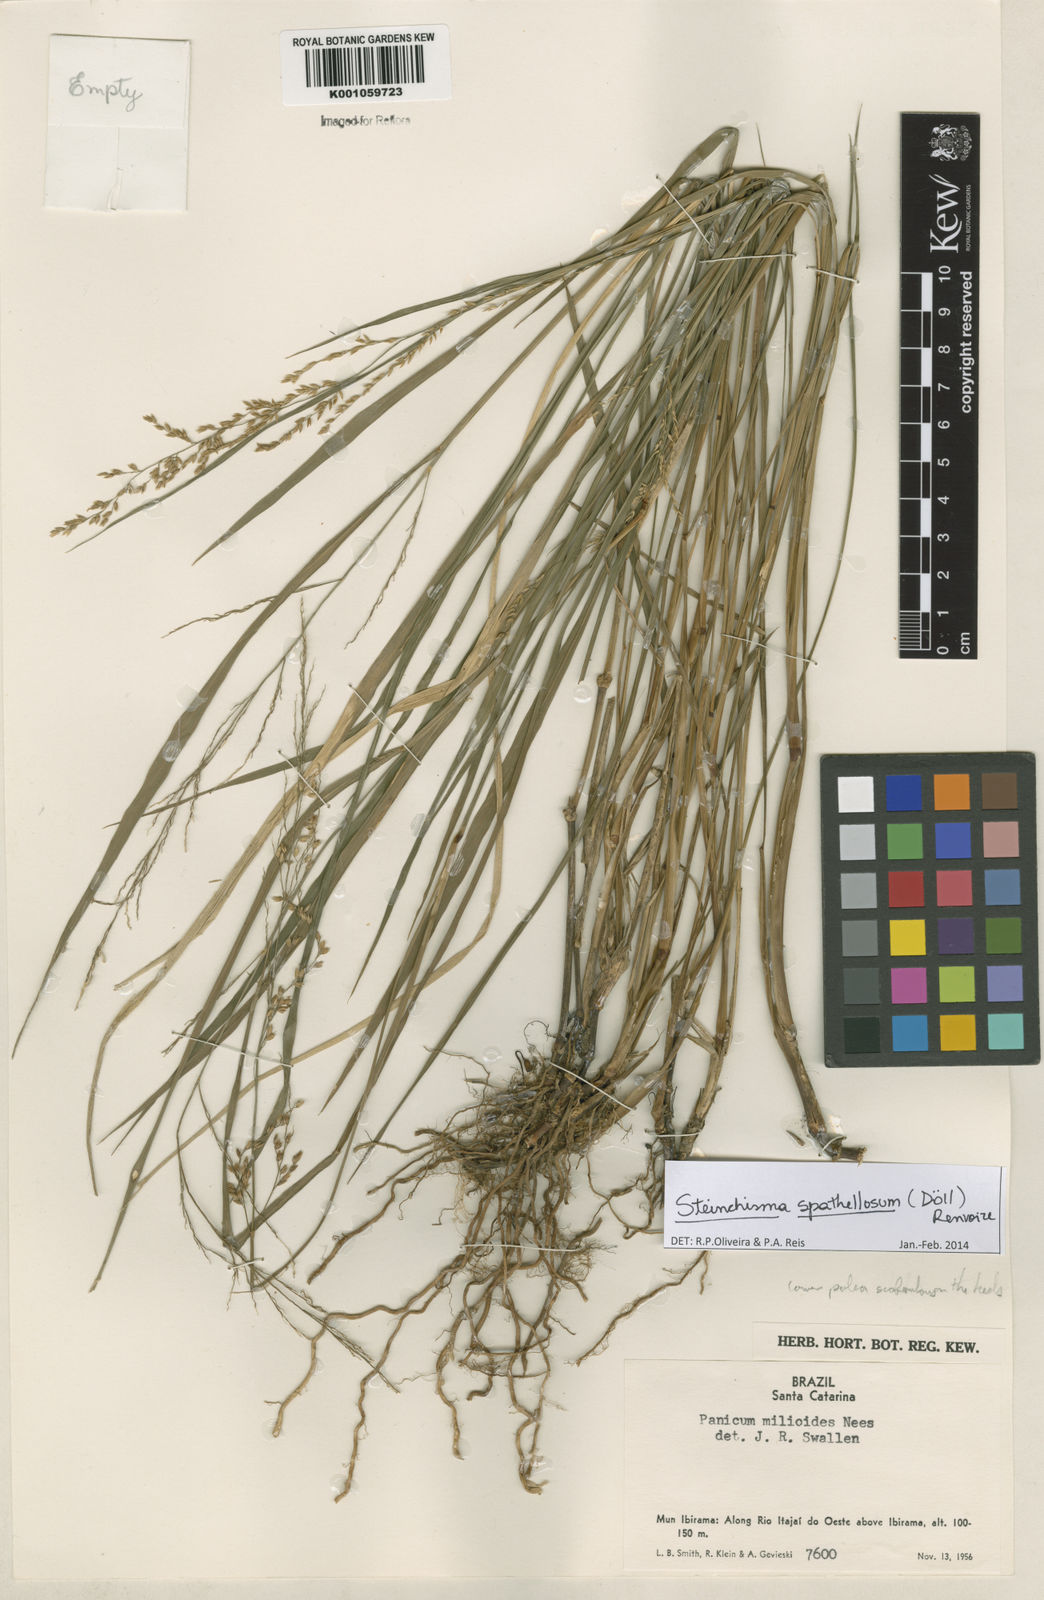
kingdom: Plantae
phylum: Tracheophyta
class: Liliopsida
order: Poales
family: Poaceae
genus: Steinchisma
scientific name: Steinchisma
